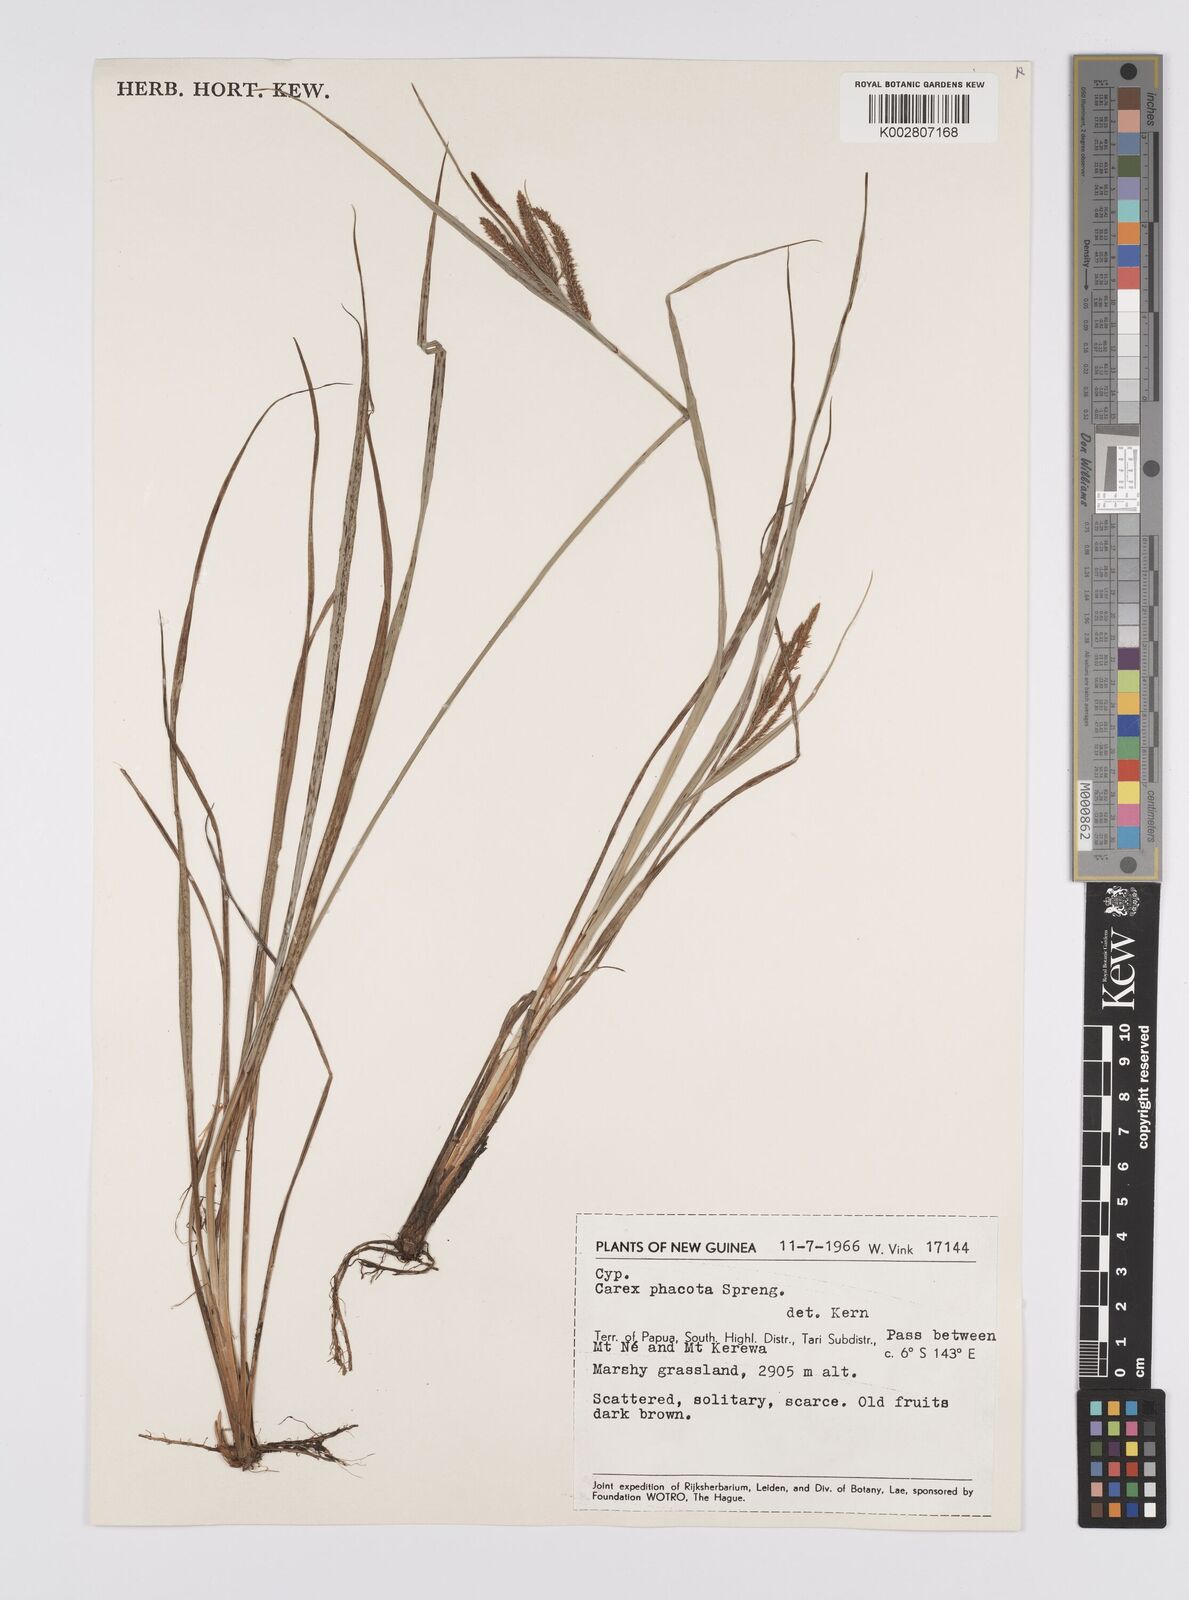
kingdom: Plantae
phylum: Tracheophyta
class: Liliopsida
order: Poales
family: Cyperaceae
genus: Carex
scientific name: Carex phacota
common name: Lakeshore sedge
